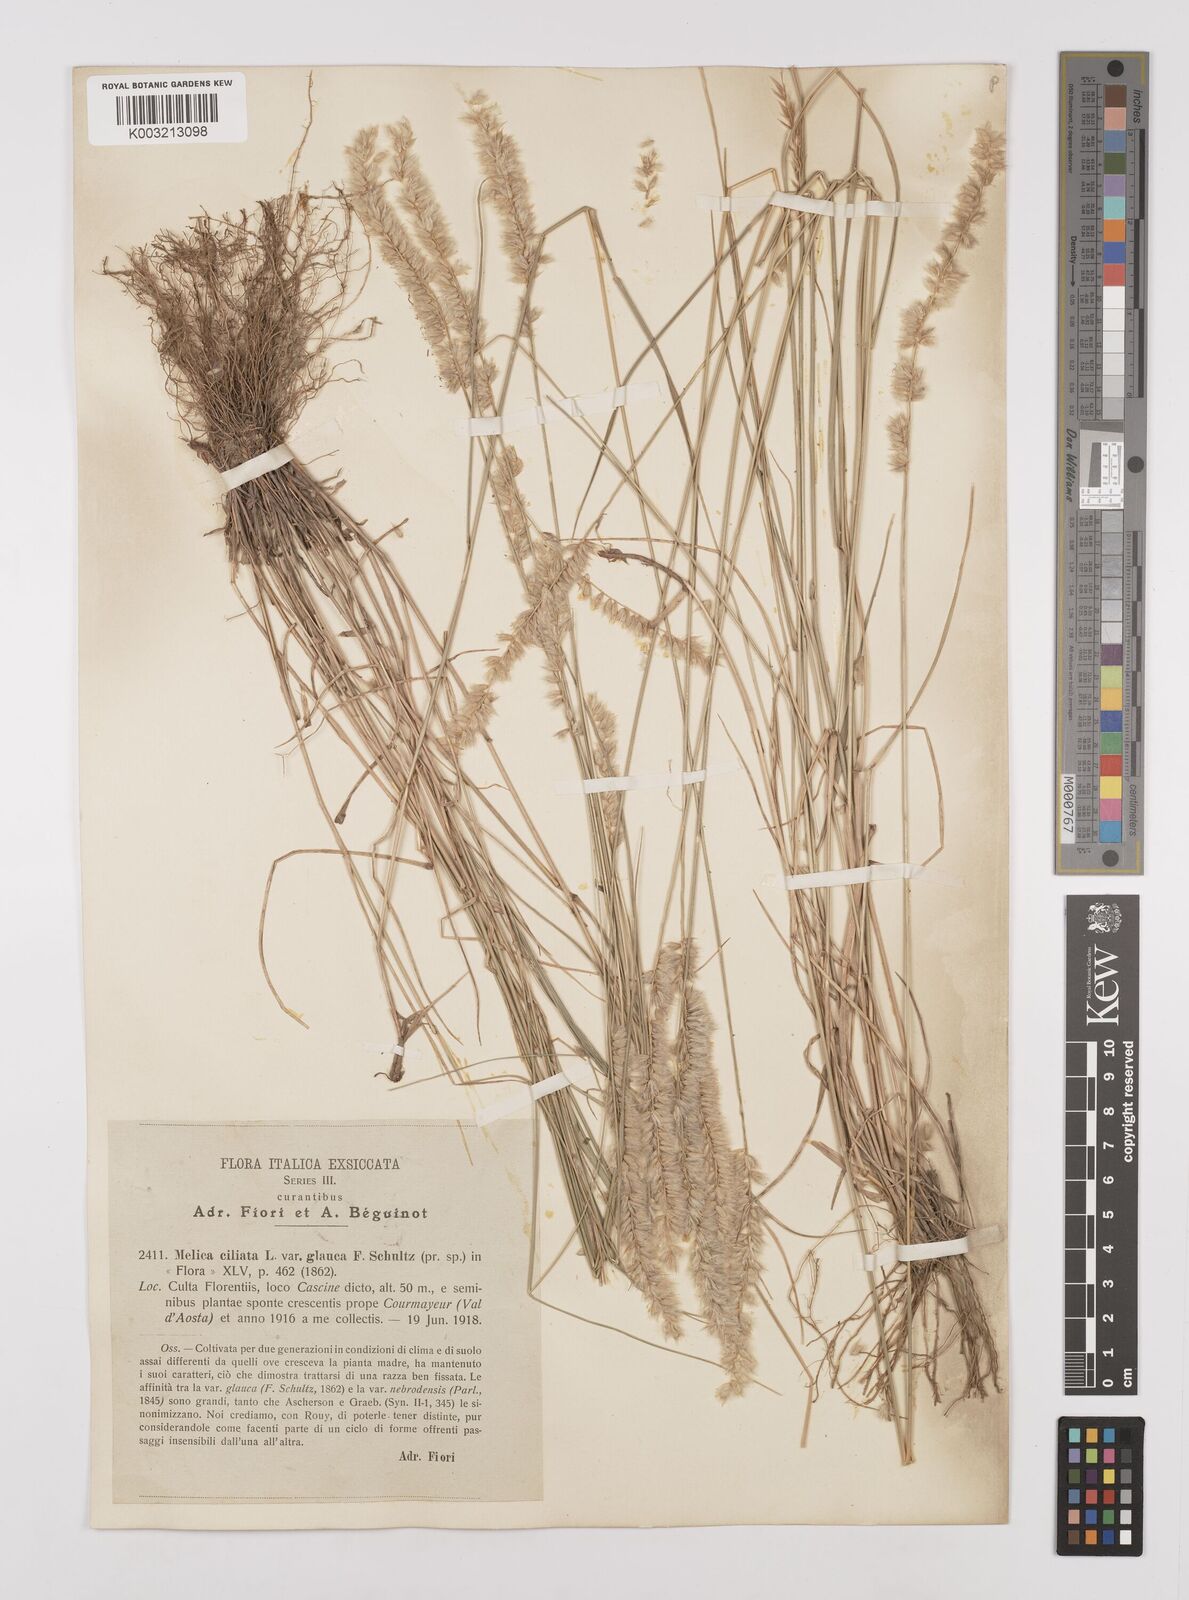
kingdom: Plantae
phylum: Tracheophyta
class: Liliopsida
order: Poales
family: Poaceae
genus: Melica
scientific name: Melica ciliata
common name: Hairy melicgrass
